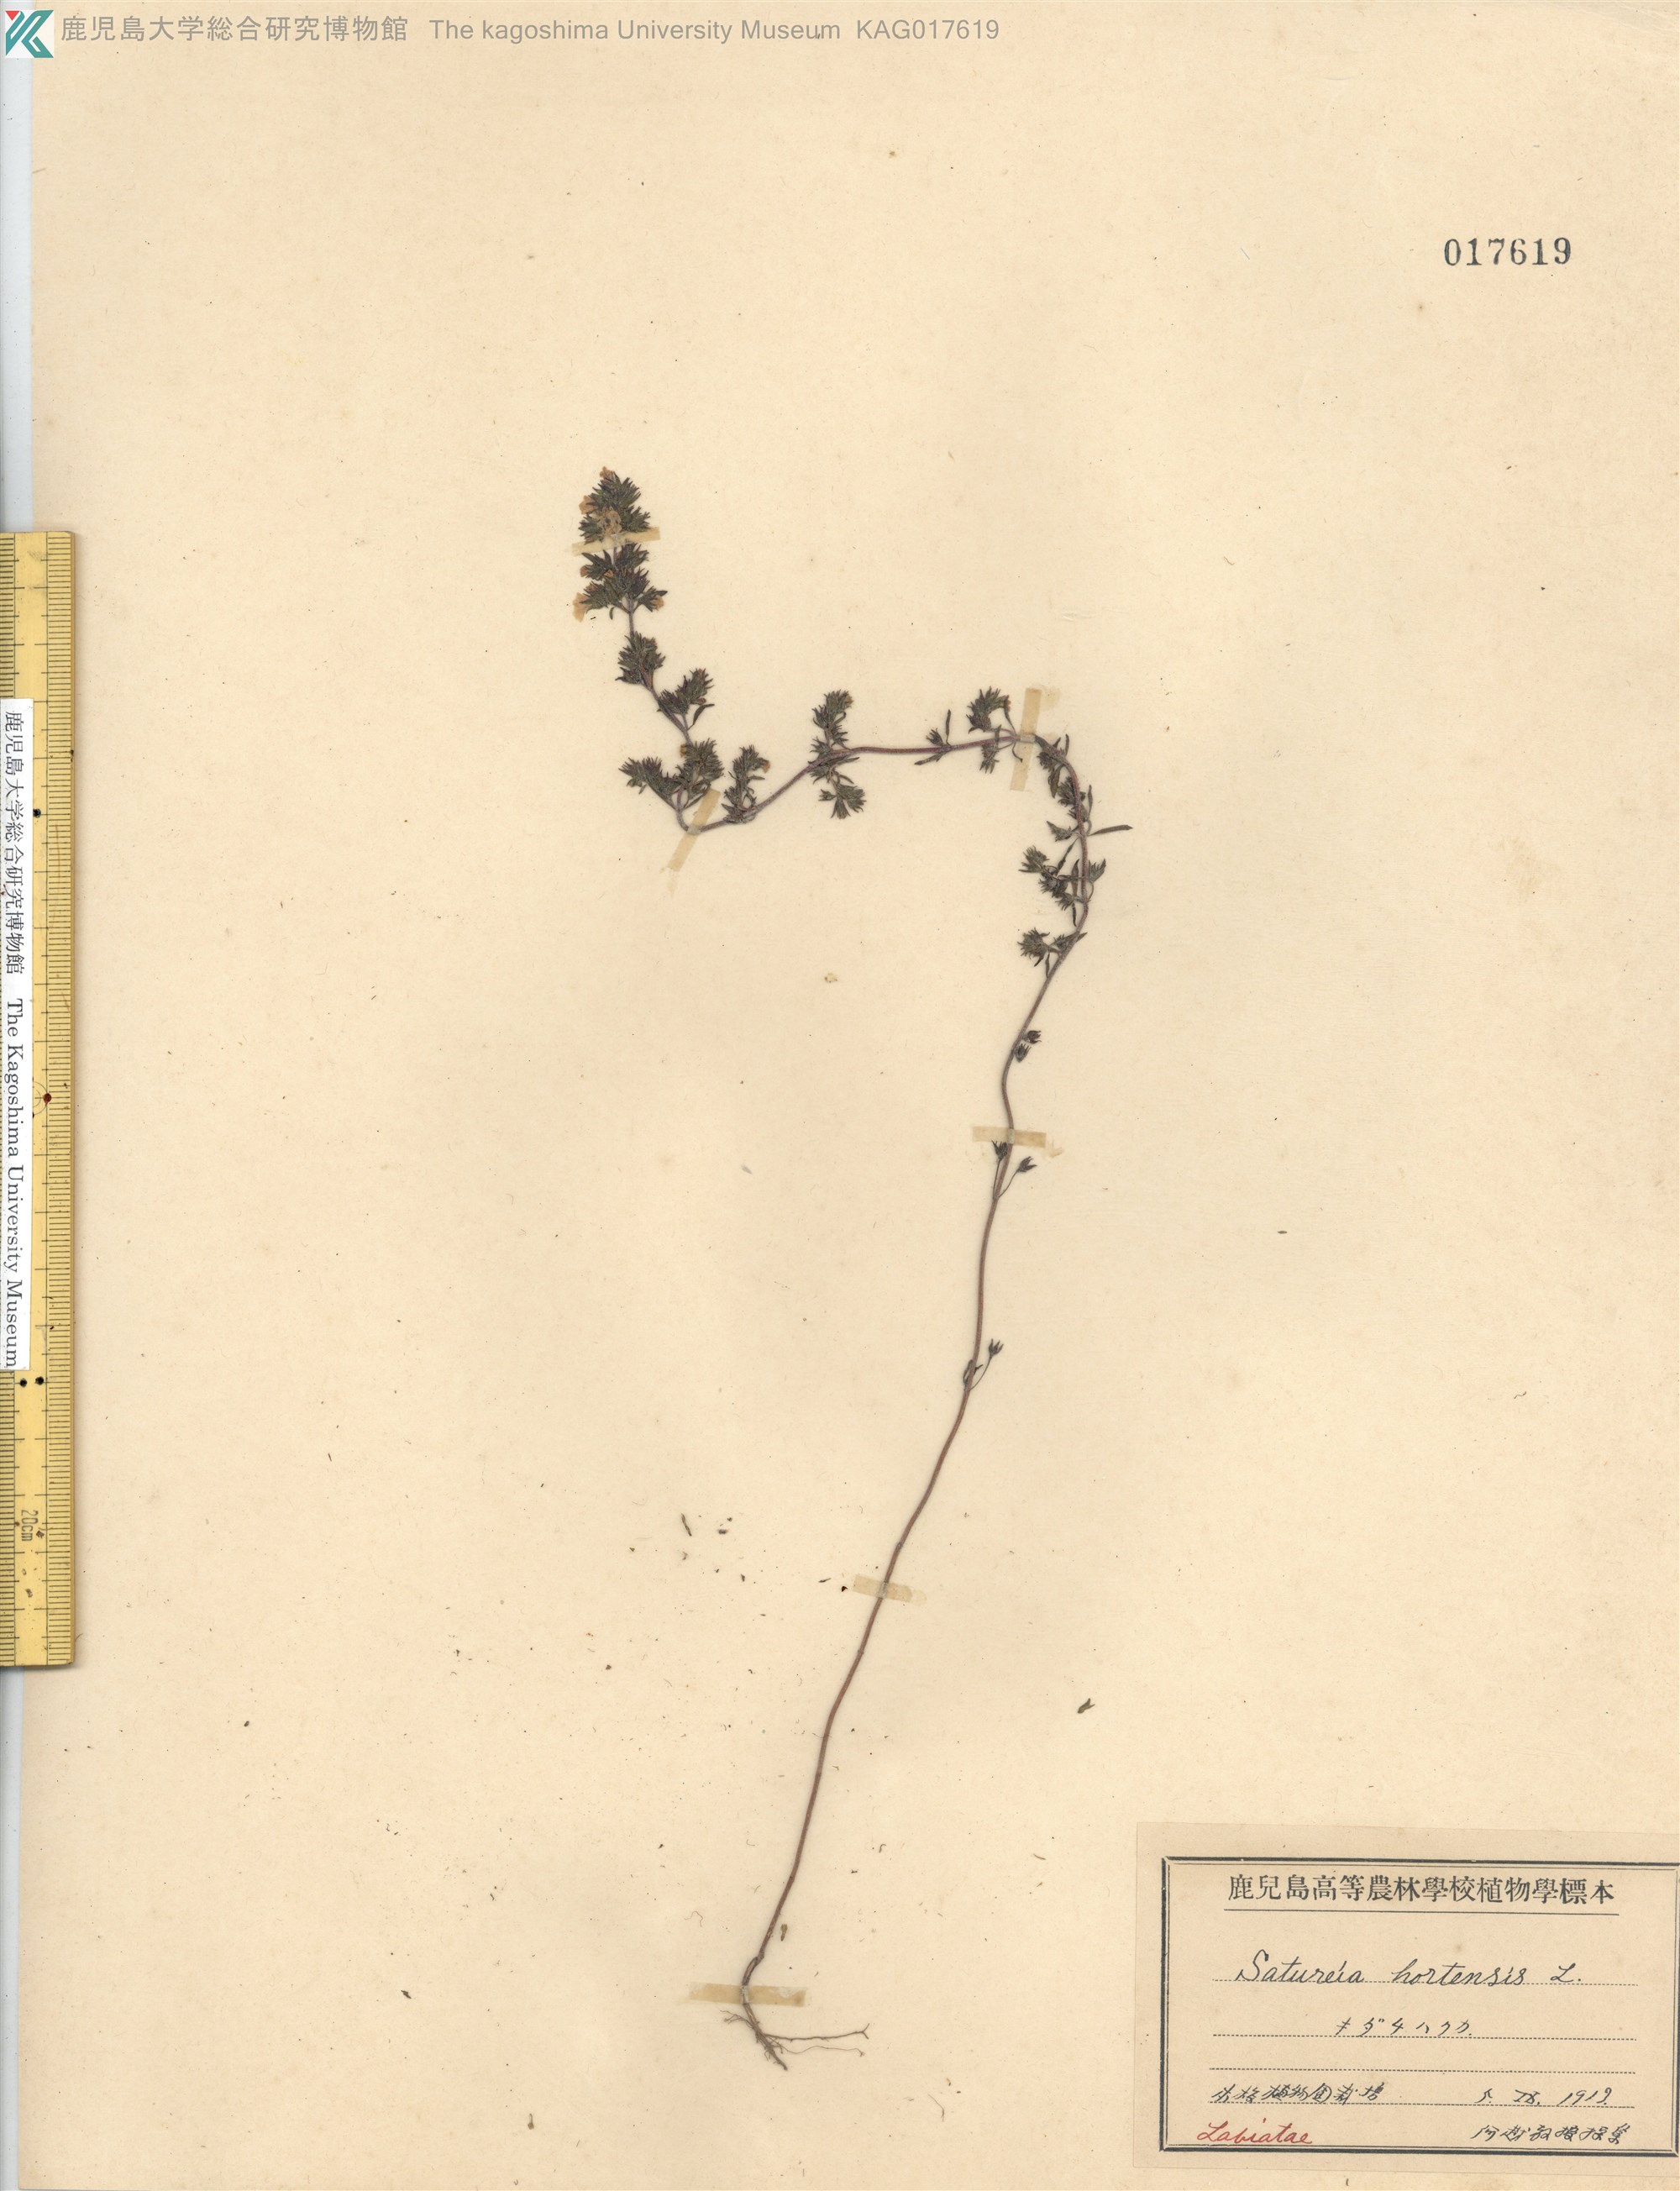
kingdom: Plantae
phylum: Tracheophyta
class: Magnoliopsida
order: Lamiales
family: Lamiaceae
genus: Satureja
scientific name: Satureja hortensis
